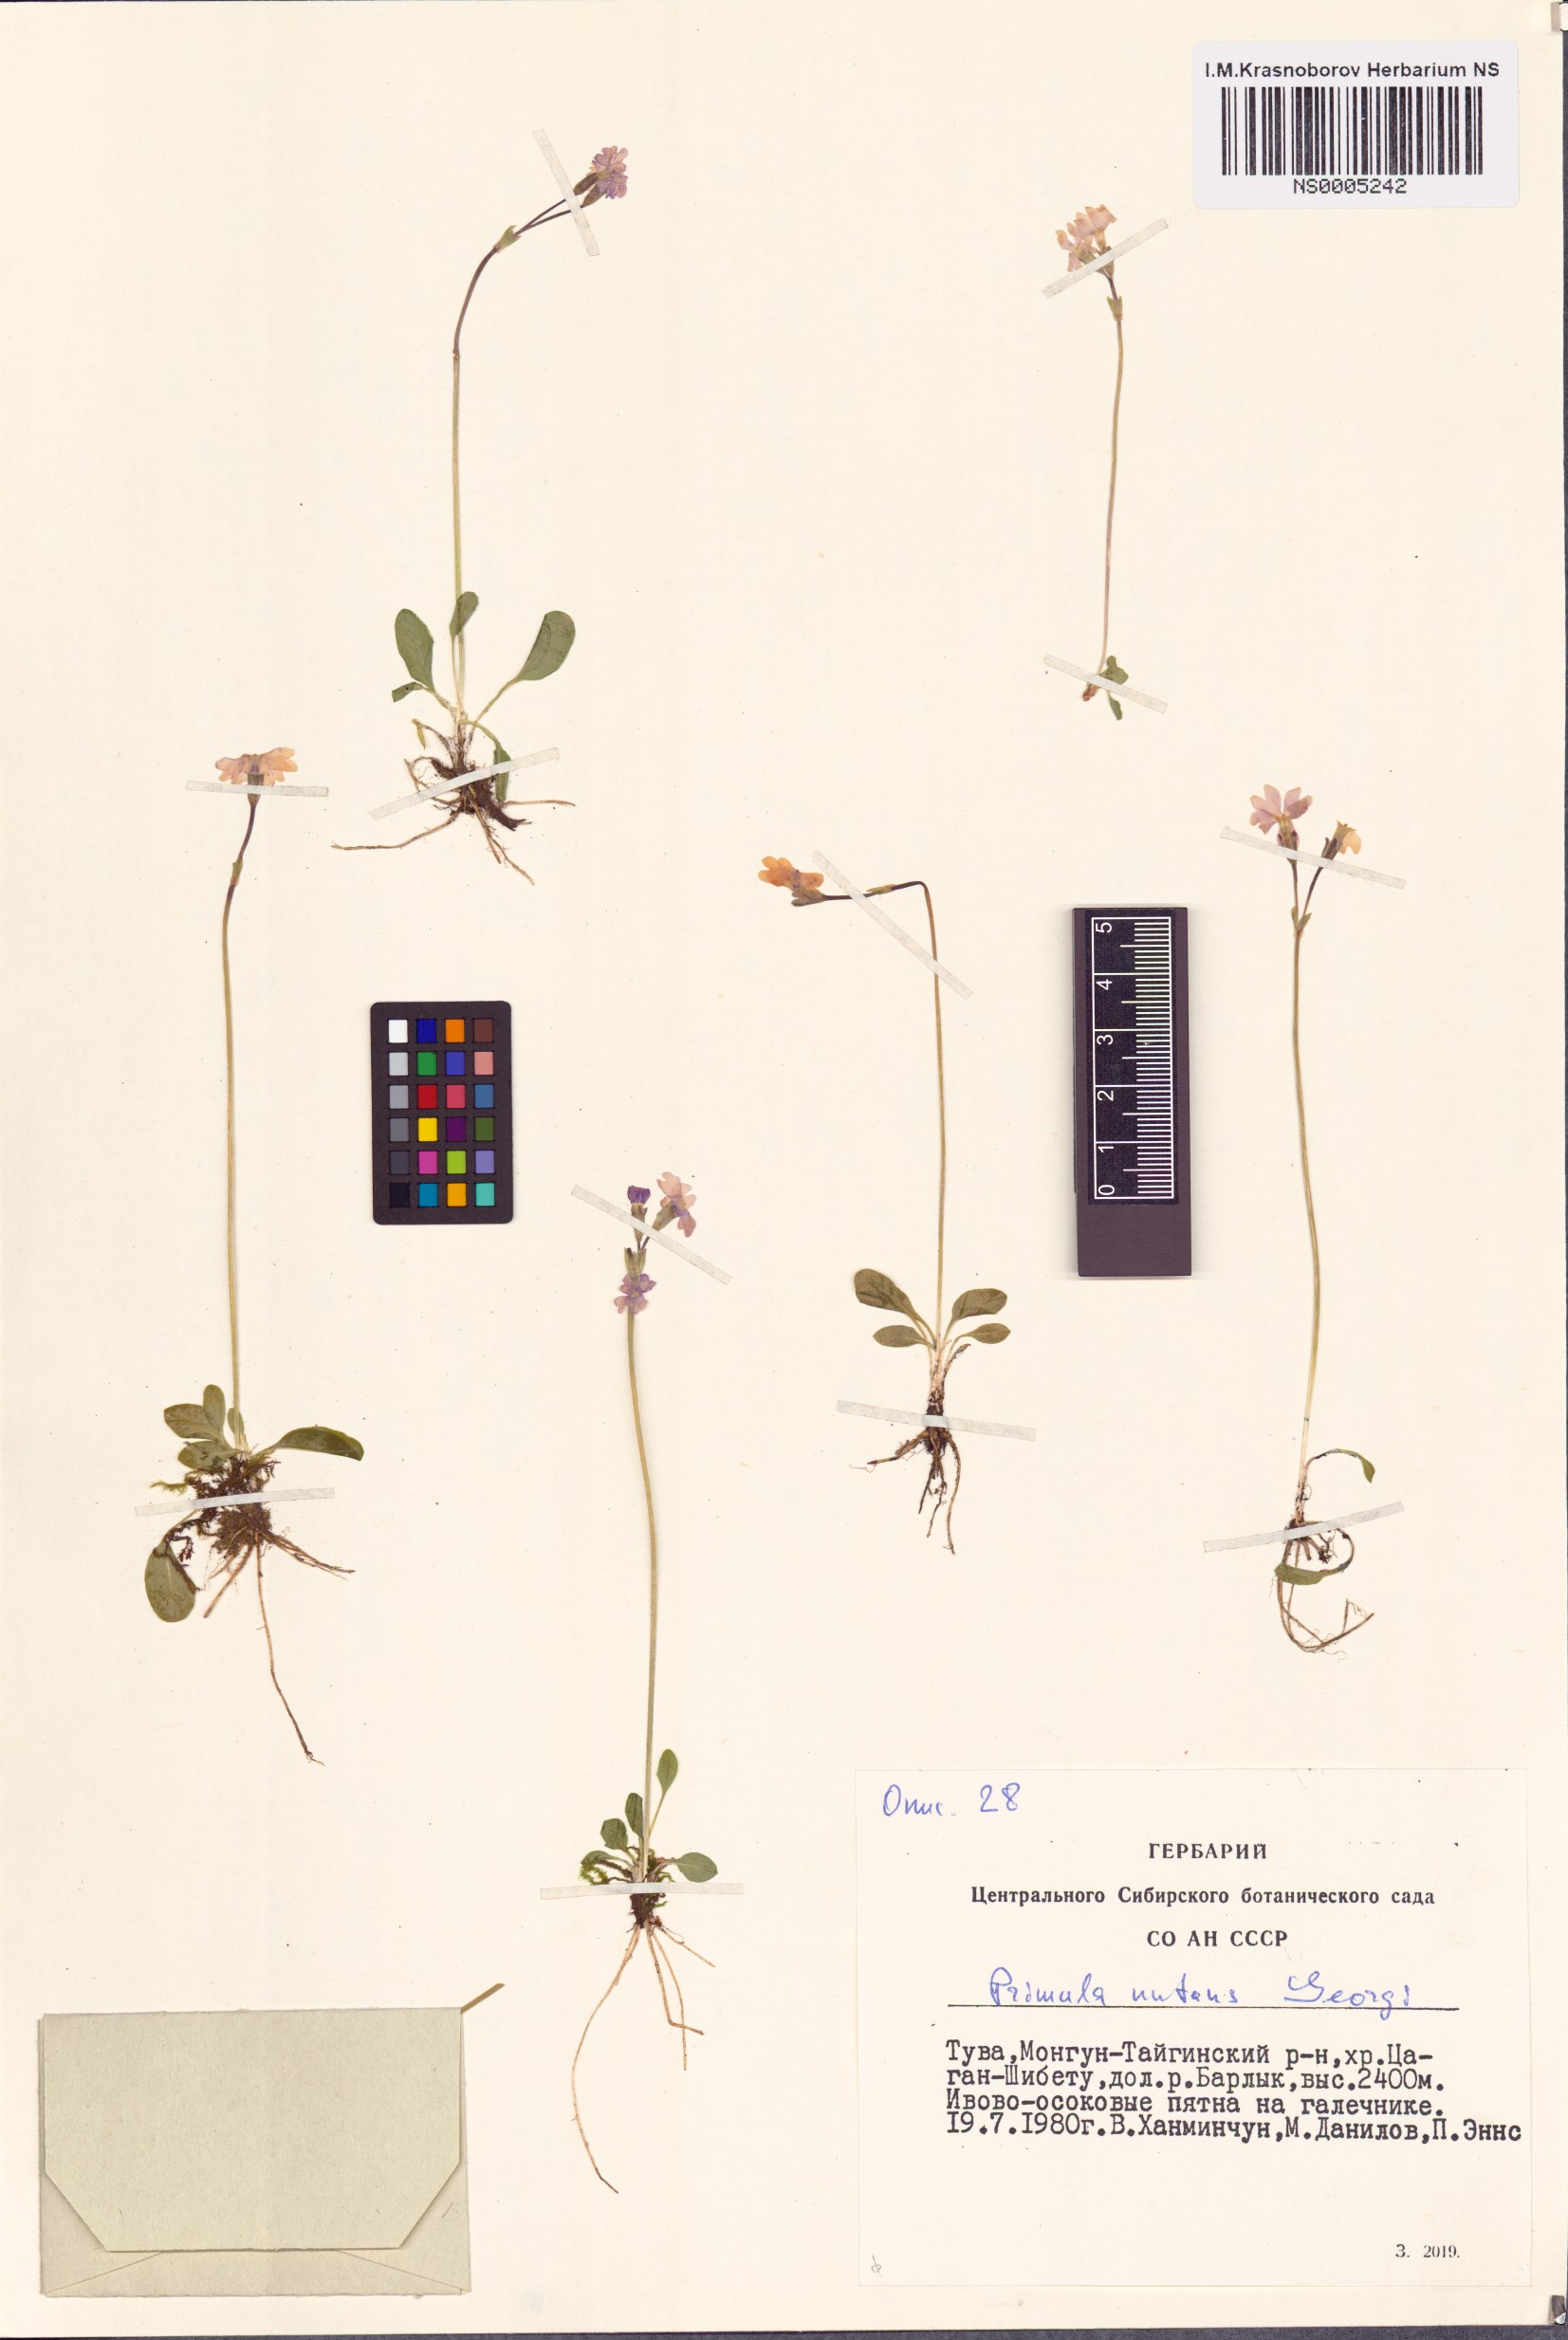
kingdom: Plantae
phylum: Tracheophyta
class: Magnoliopsida
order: Ericales
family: Primulaceae
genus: Primula
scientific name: Primula nutans
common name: Siberian primrose
